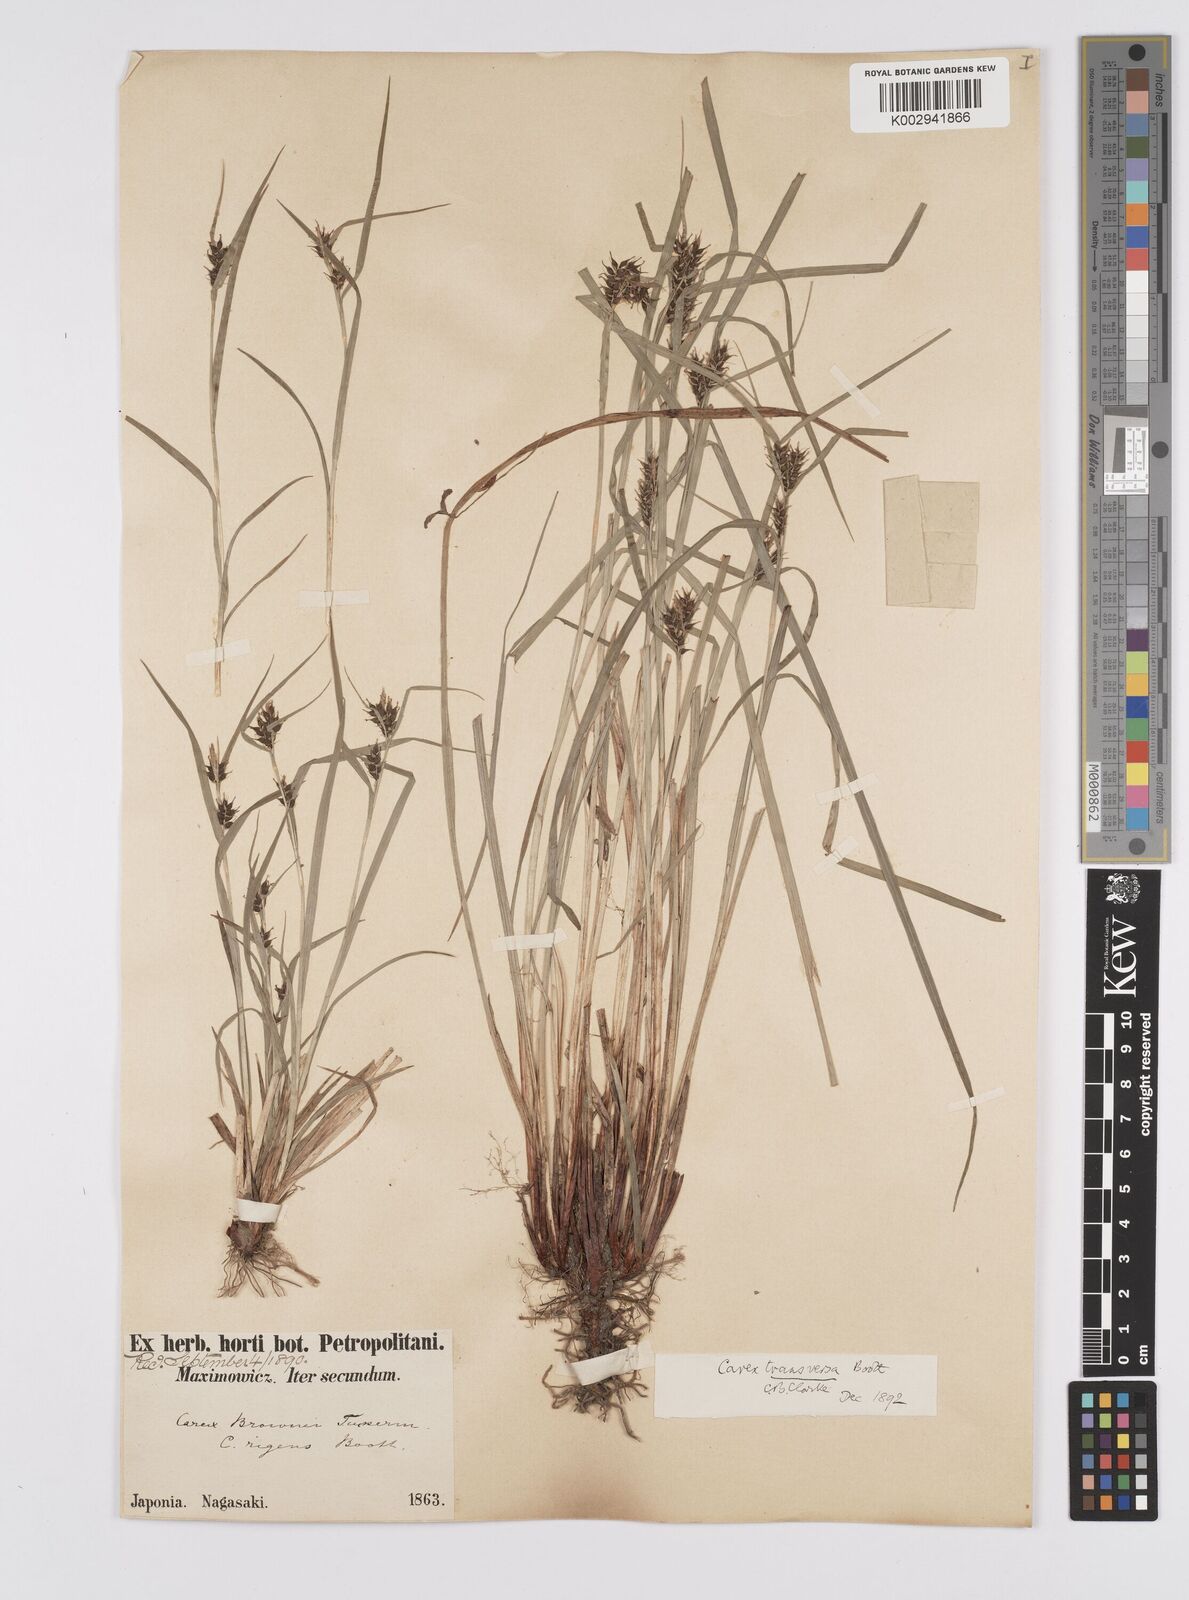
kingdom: Plantae
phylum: Tracheophyta
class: Liliopsida
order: Poales
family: Cyperaceae
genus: Carex
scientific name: Carex brownii
